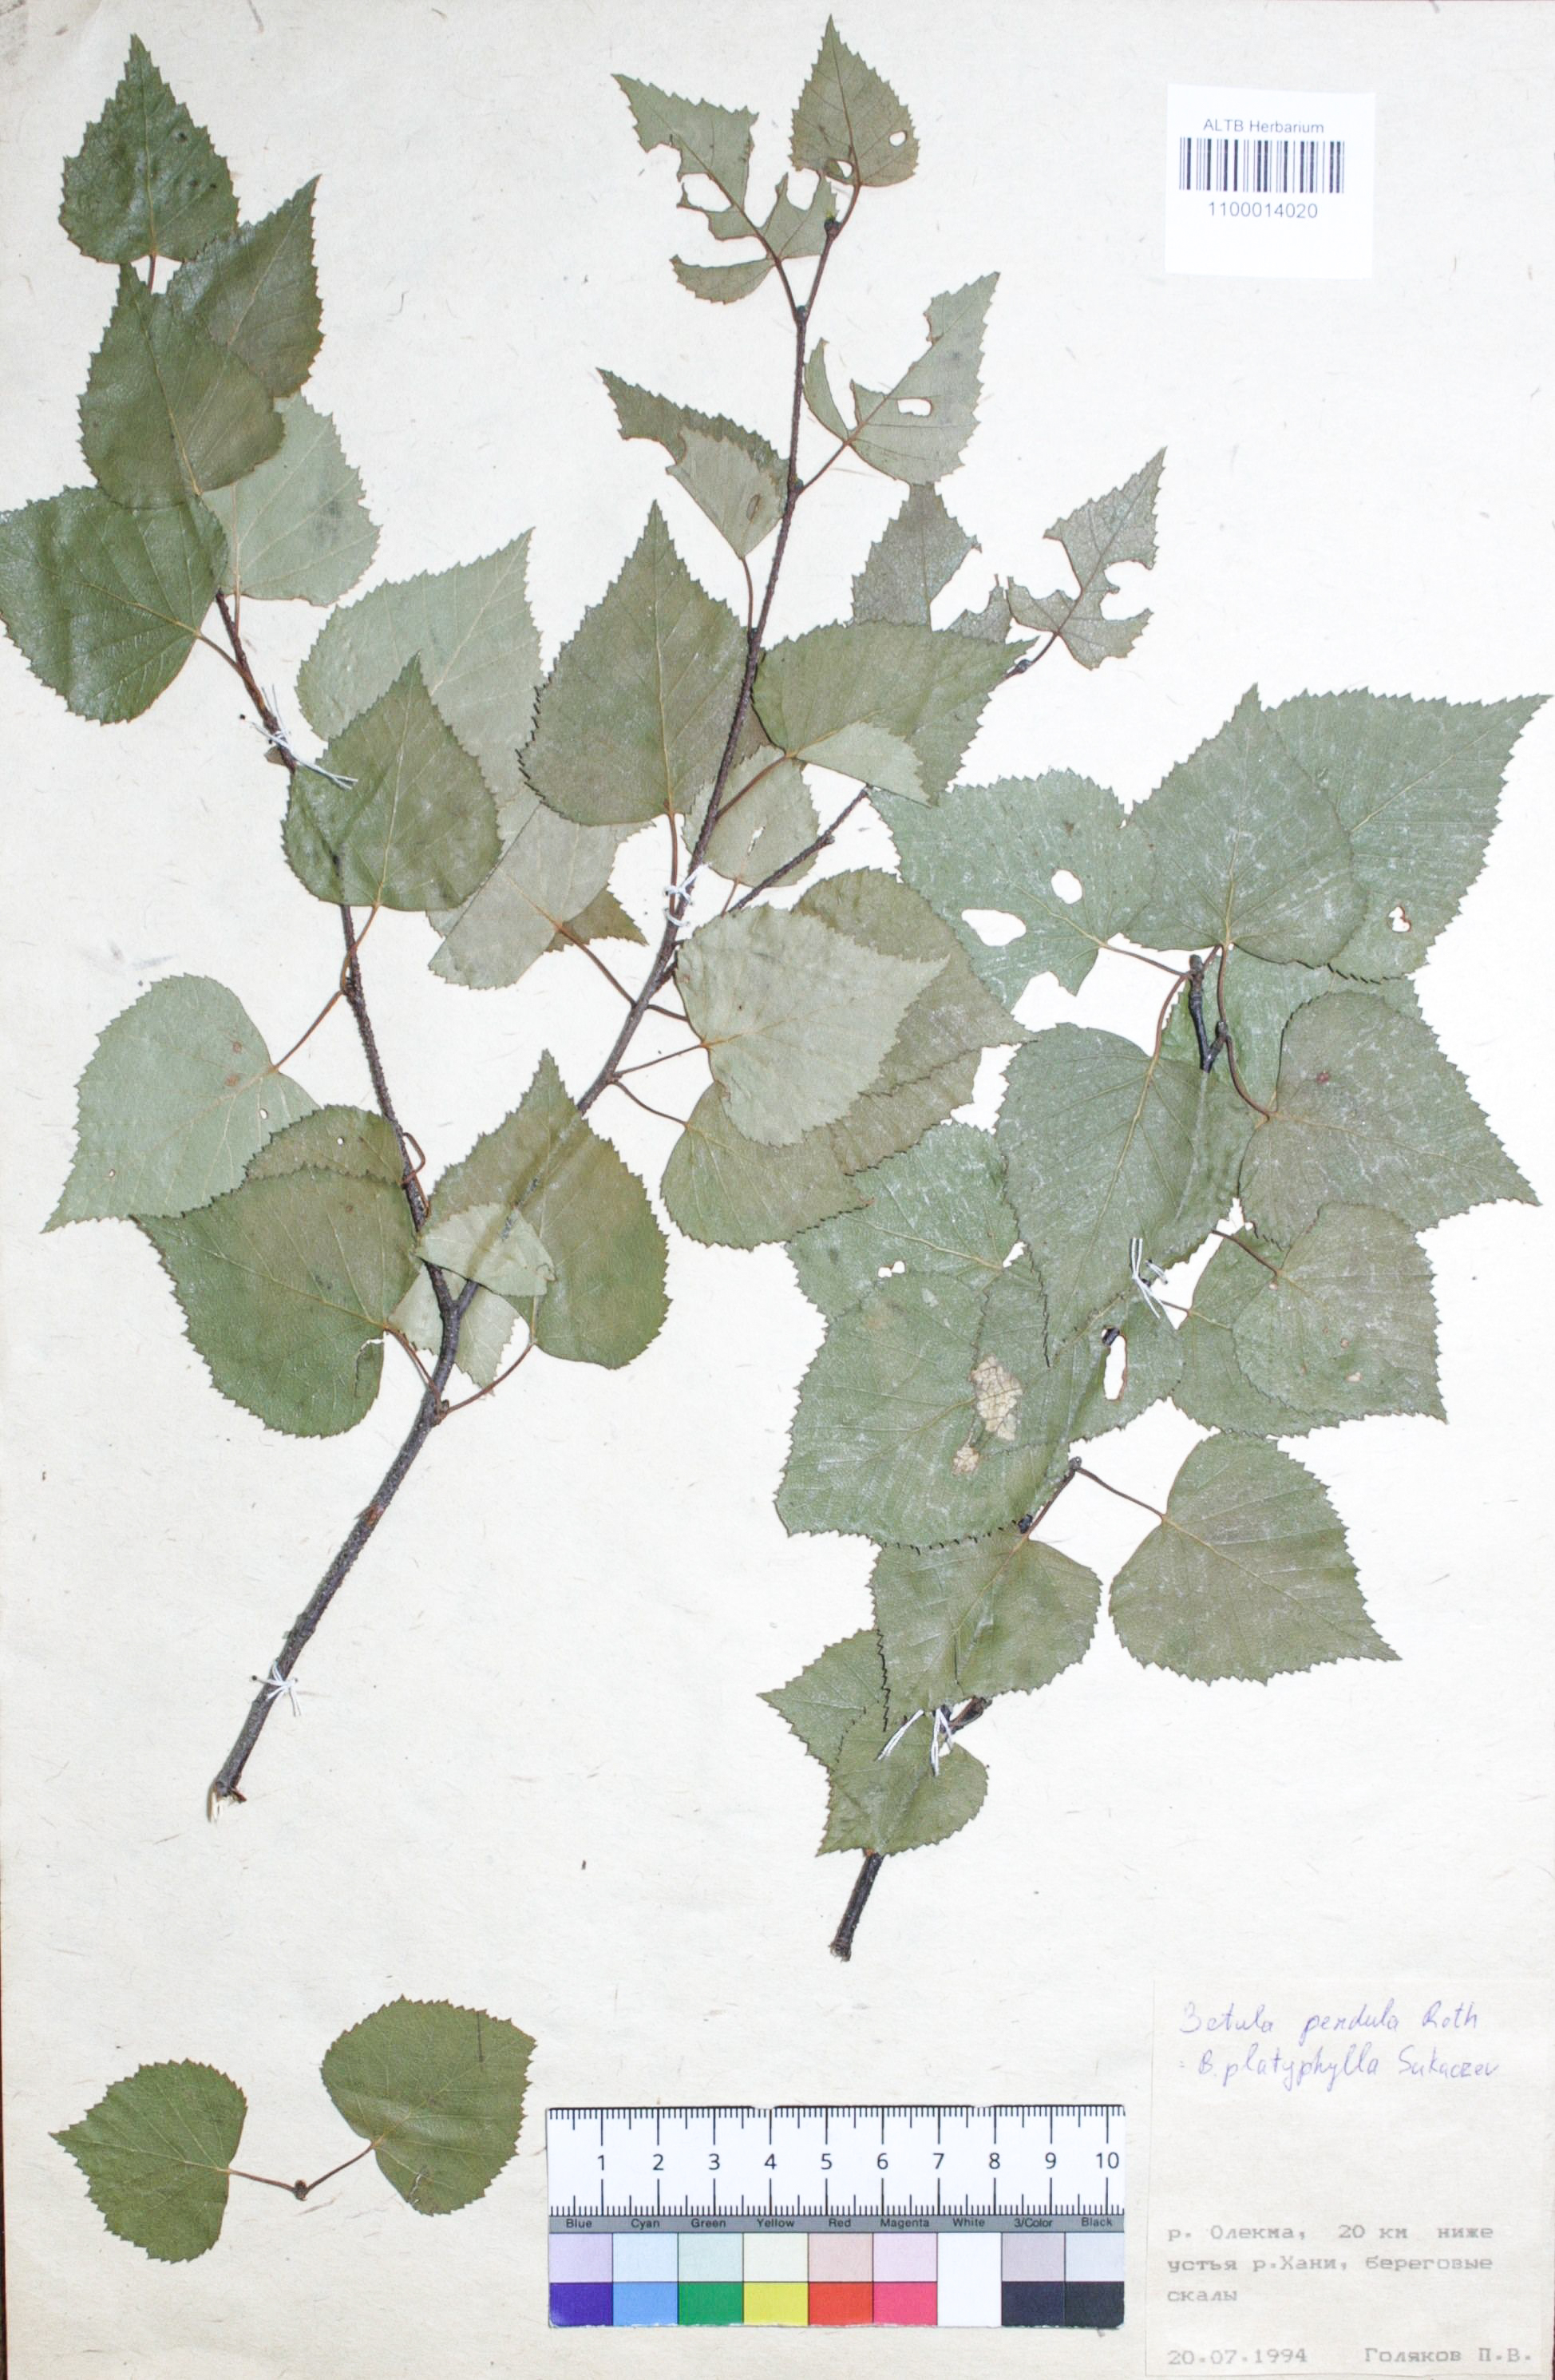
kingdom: Plantae
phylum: Tracheophyta
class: Magnoliopsida
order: Fagales
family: Betulaceae
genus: Betula
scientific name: Betula pendula
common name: Silver birch
